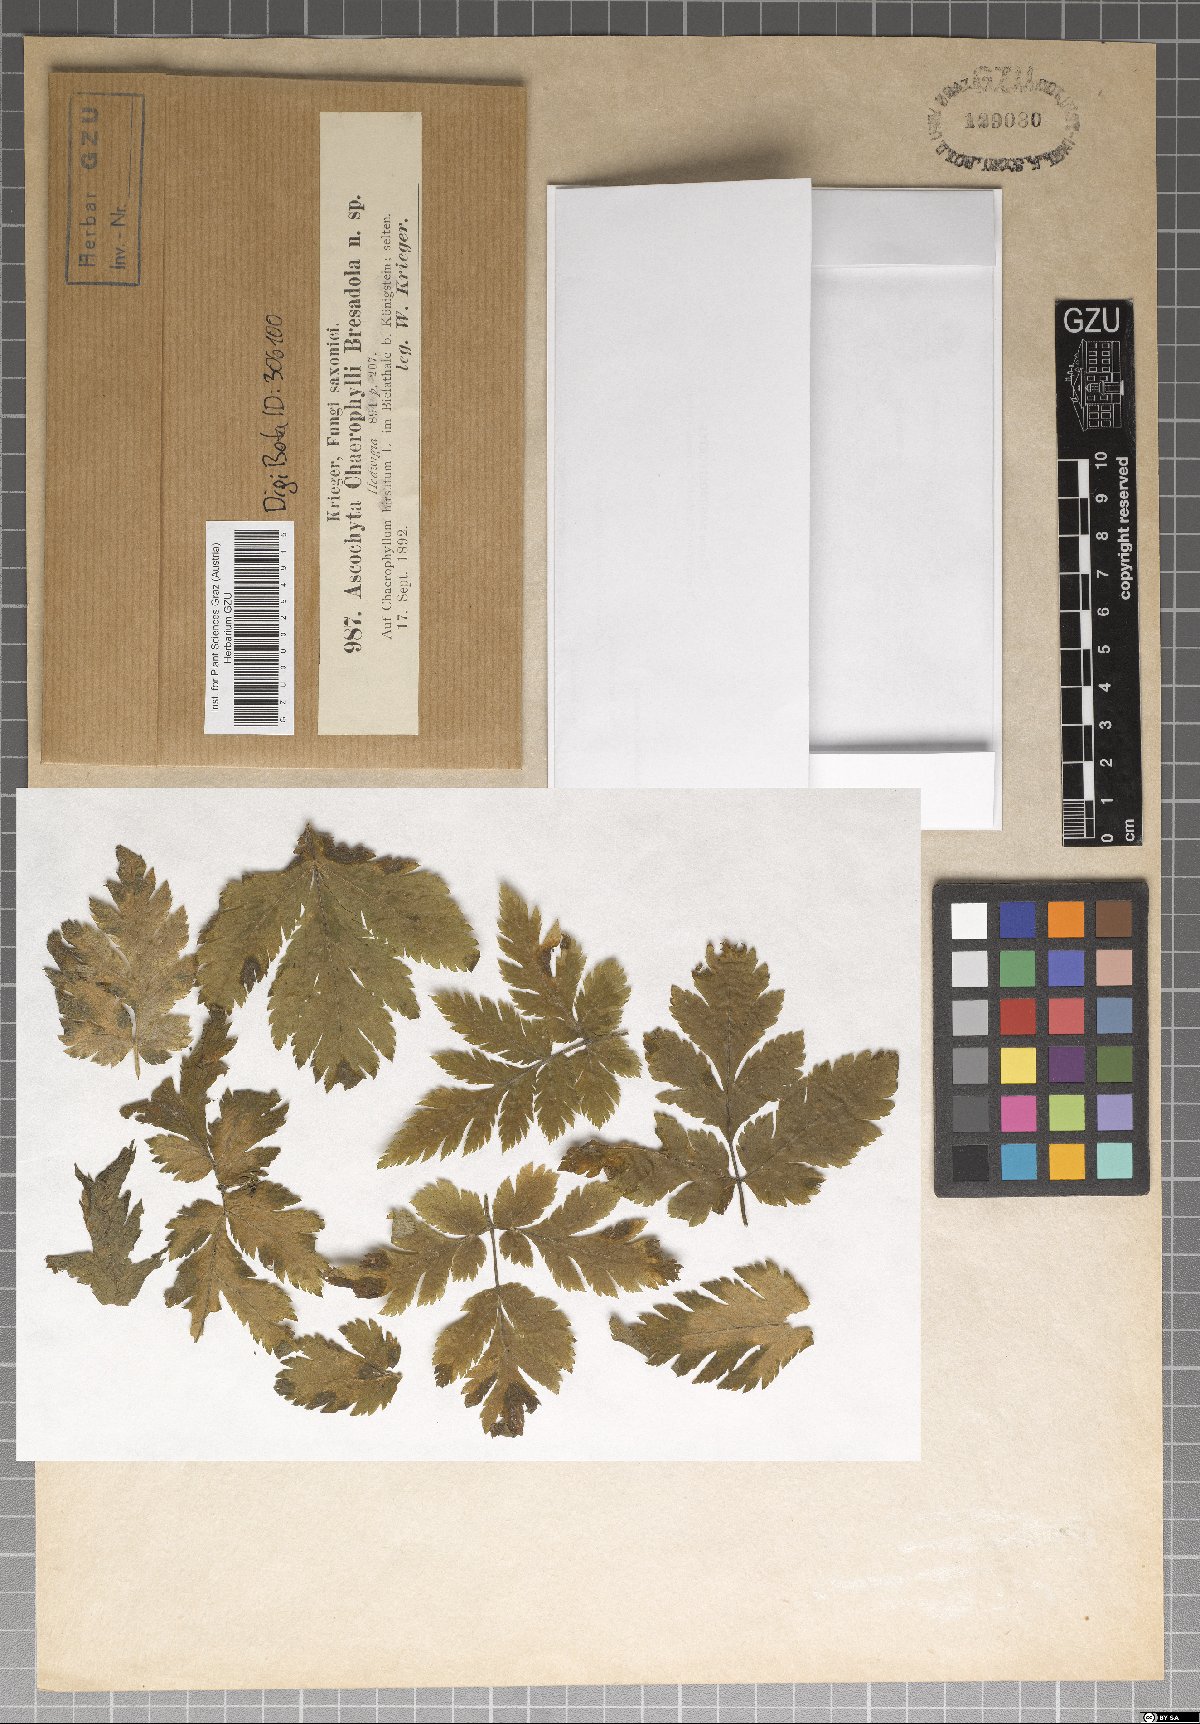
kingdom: Fungi
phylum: Ascomycota
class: Dothideomycetes
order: Pleosporales
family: Didymellaceae
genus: Ascochyta
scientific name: Ascochyta
